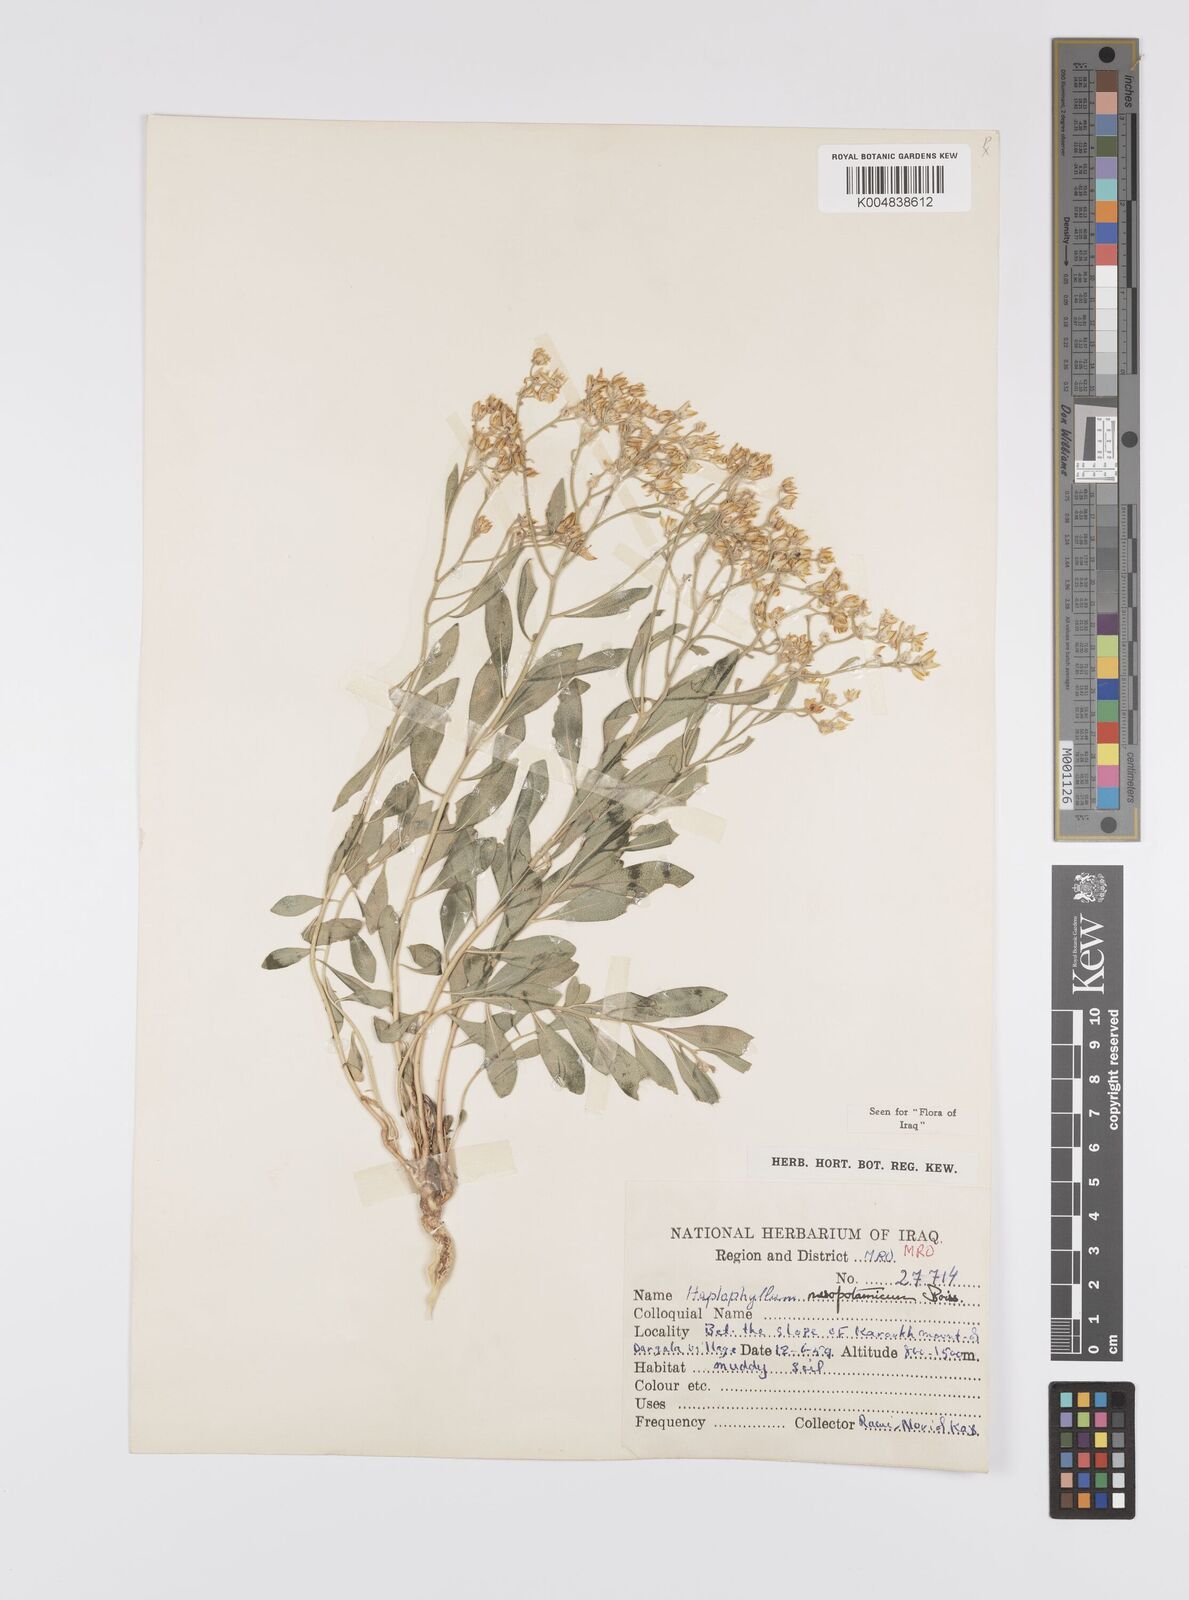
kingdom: Plantae
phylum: Tracheophyta
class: Magnoliopsida
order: Sapindales
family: Rutaceae
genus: Haplophyllum
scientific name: Haplophyllum buxbaumii
